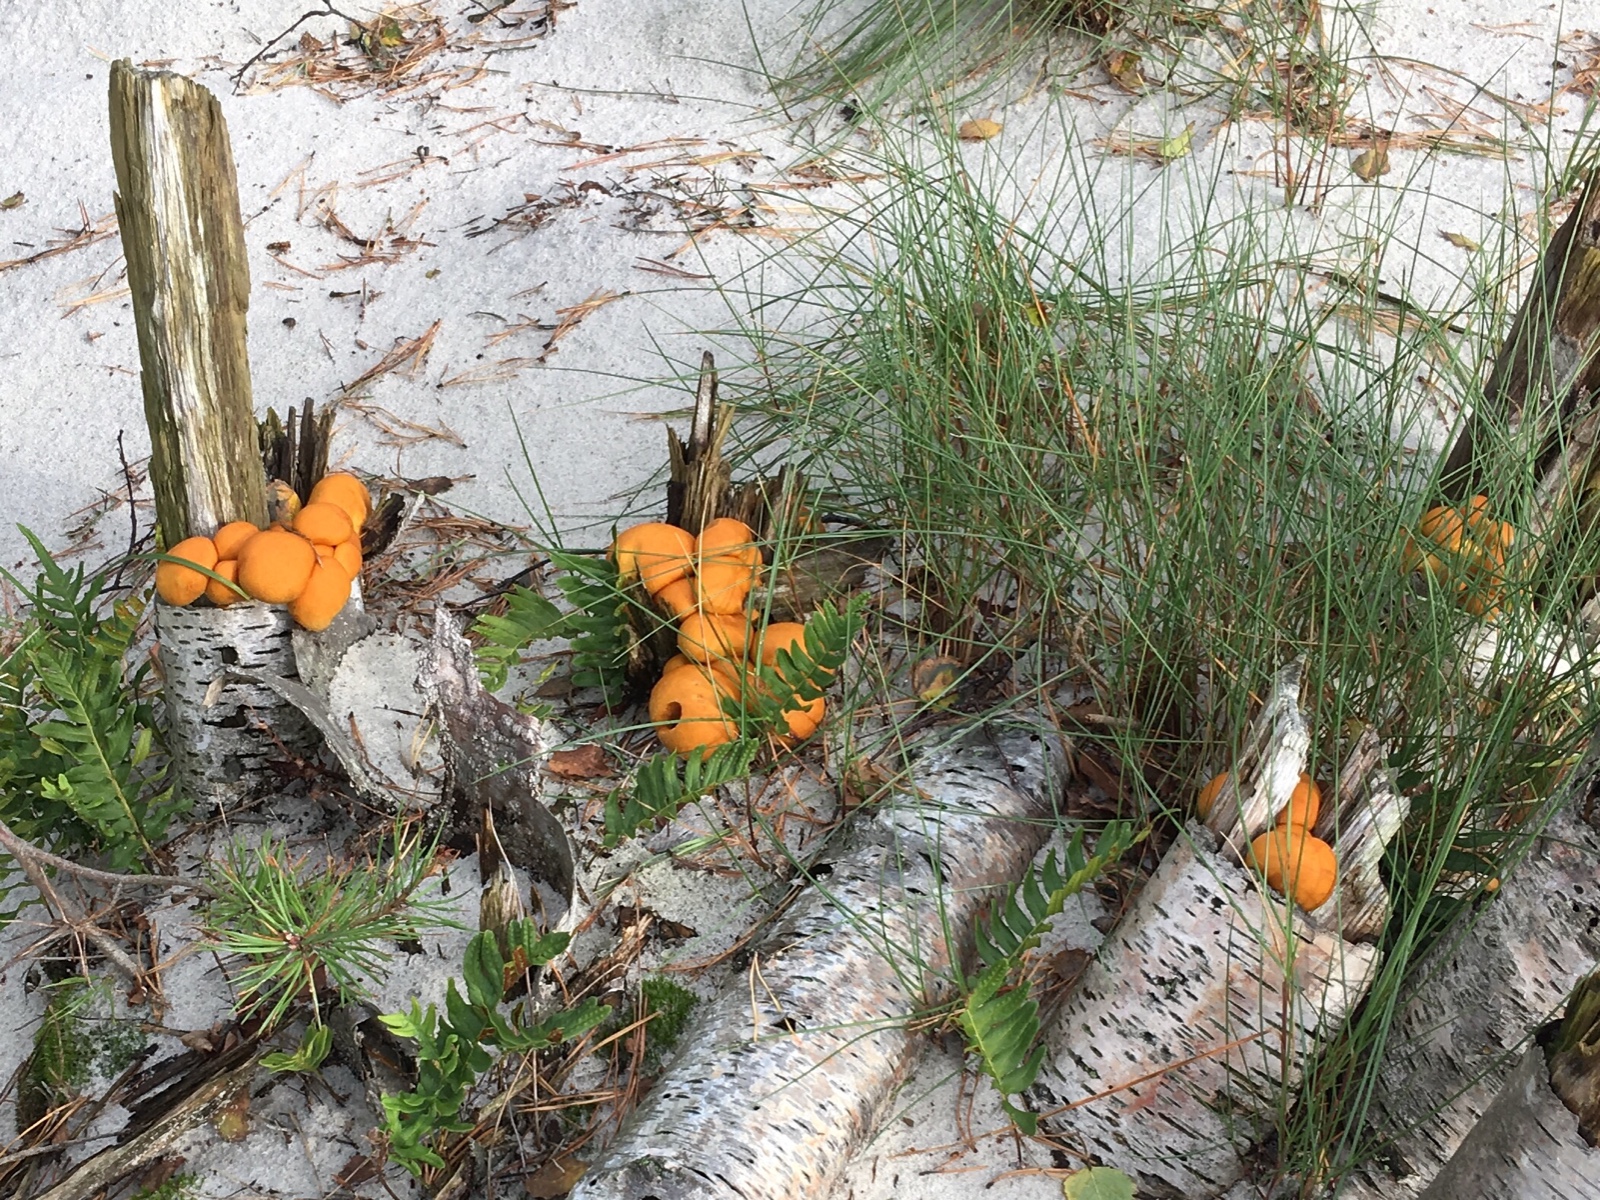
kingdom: Fungi
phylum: Basidiomycota
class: Agaricomycetes
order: Agaricales
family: Hymenogastraceae
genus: Gymnopilus
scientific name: Gymnopilus spectabilis
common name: fibret flammehat
